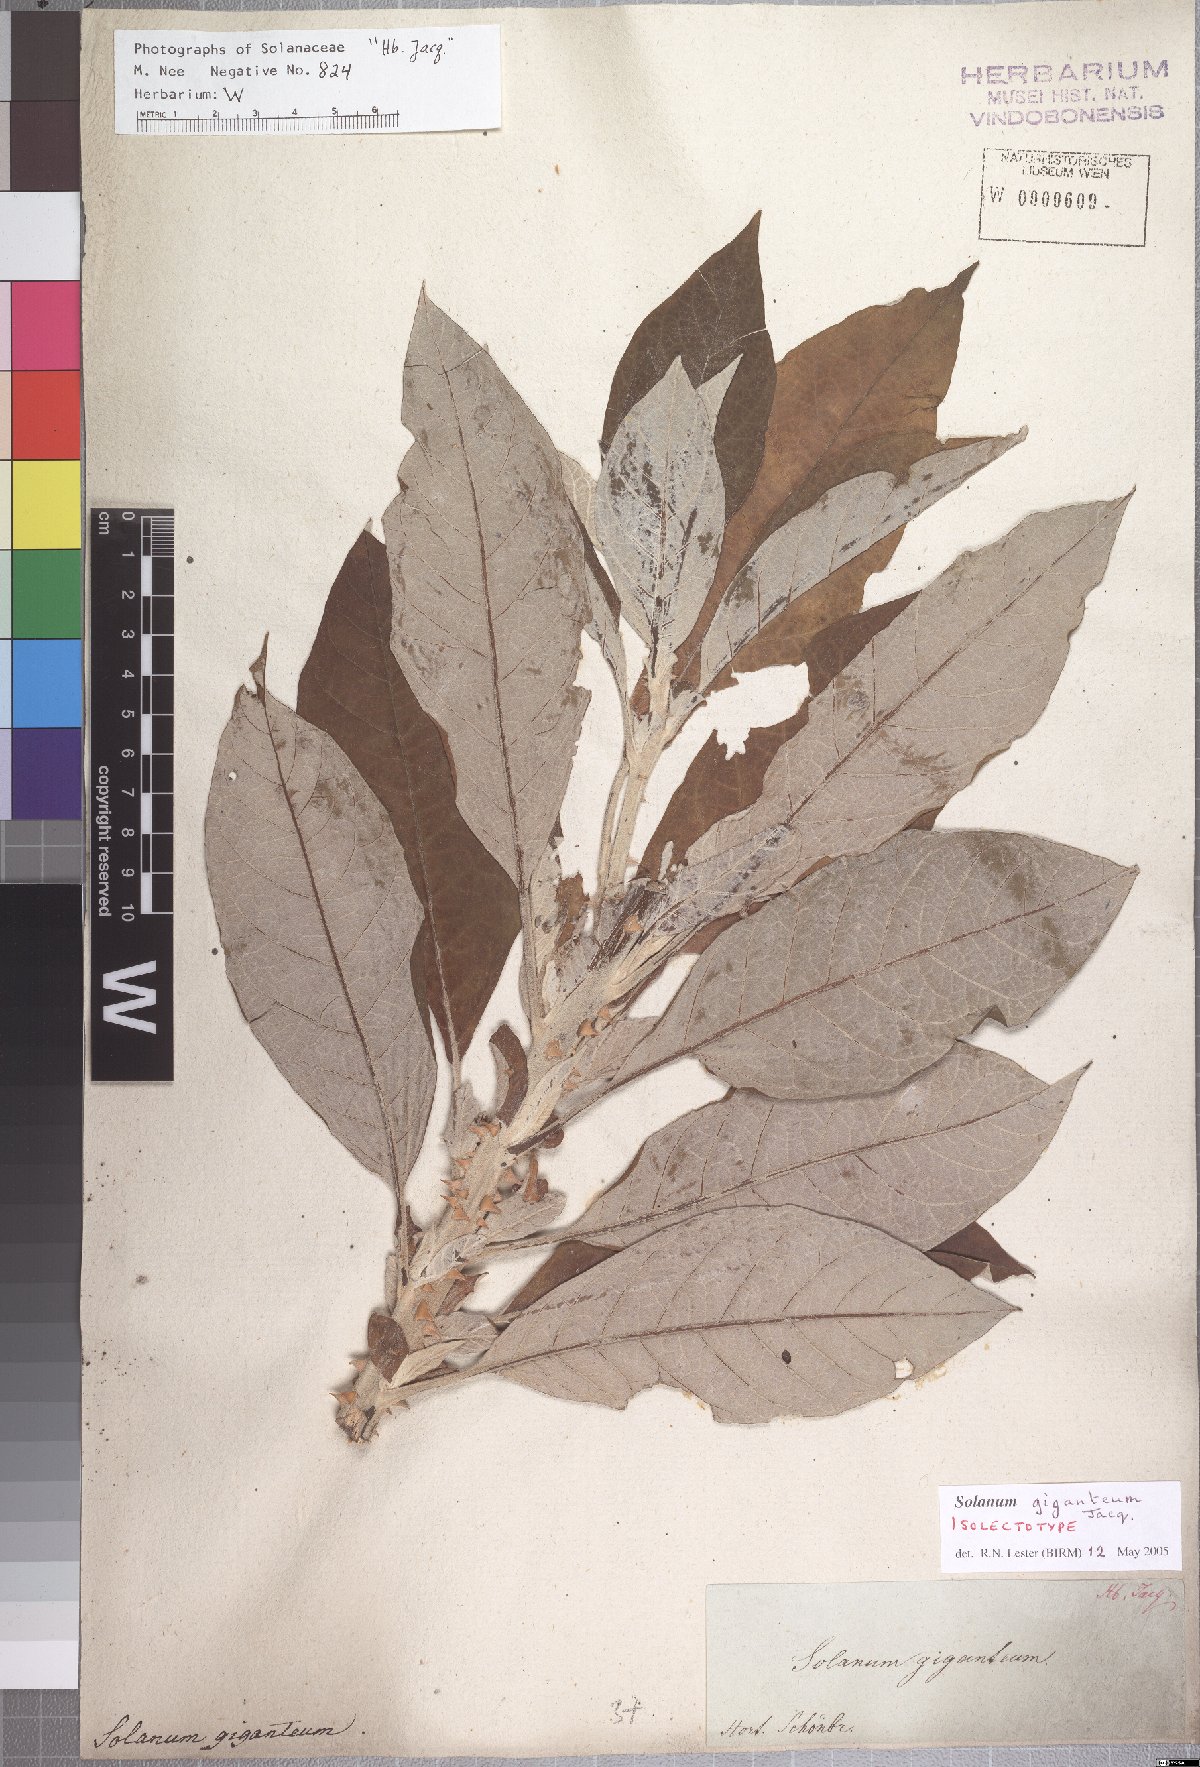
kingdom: Plantae
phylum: Tracheophyta
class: Magnoliopsida
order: Solanales
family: Solanaceae
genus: Solanum
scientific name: Solanum giganteum
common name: Healing-leaf-tree
